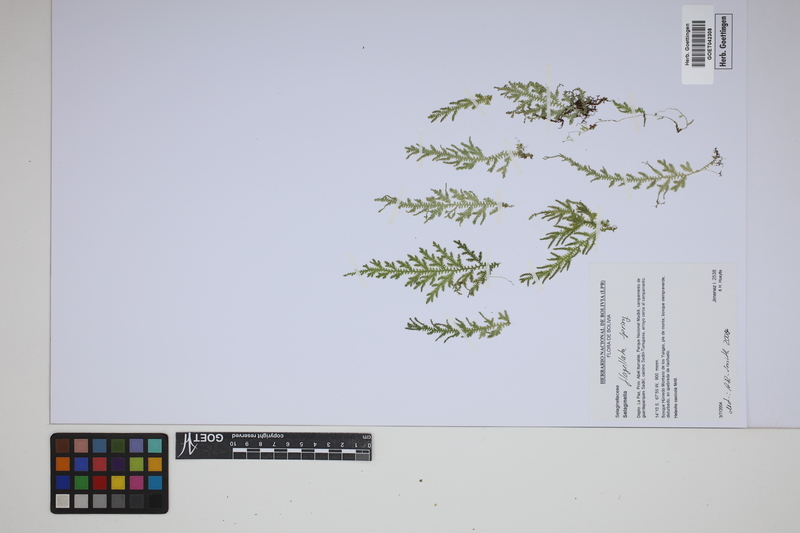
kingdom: Plantae
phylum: Tracheophyta
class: Lycopodiopsida
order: Selaginellales
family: Selaginellaceae
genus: Selaginella
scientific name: Selaginella flagellata
